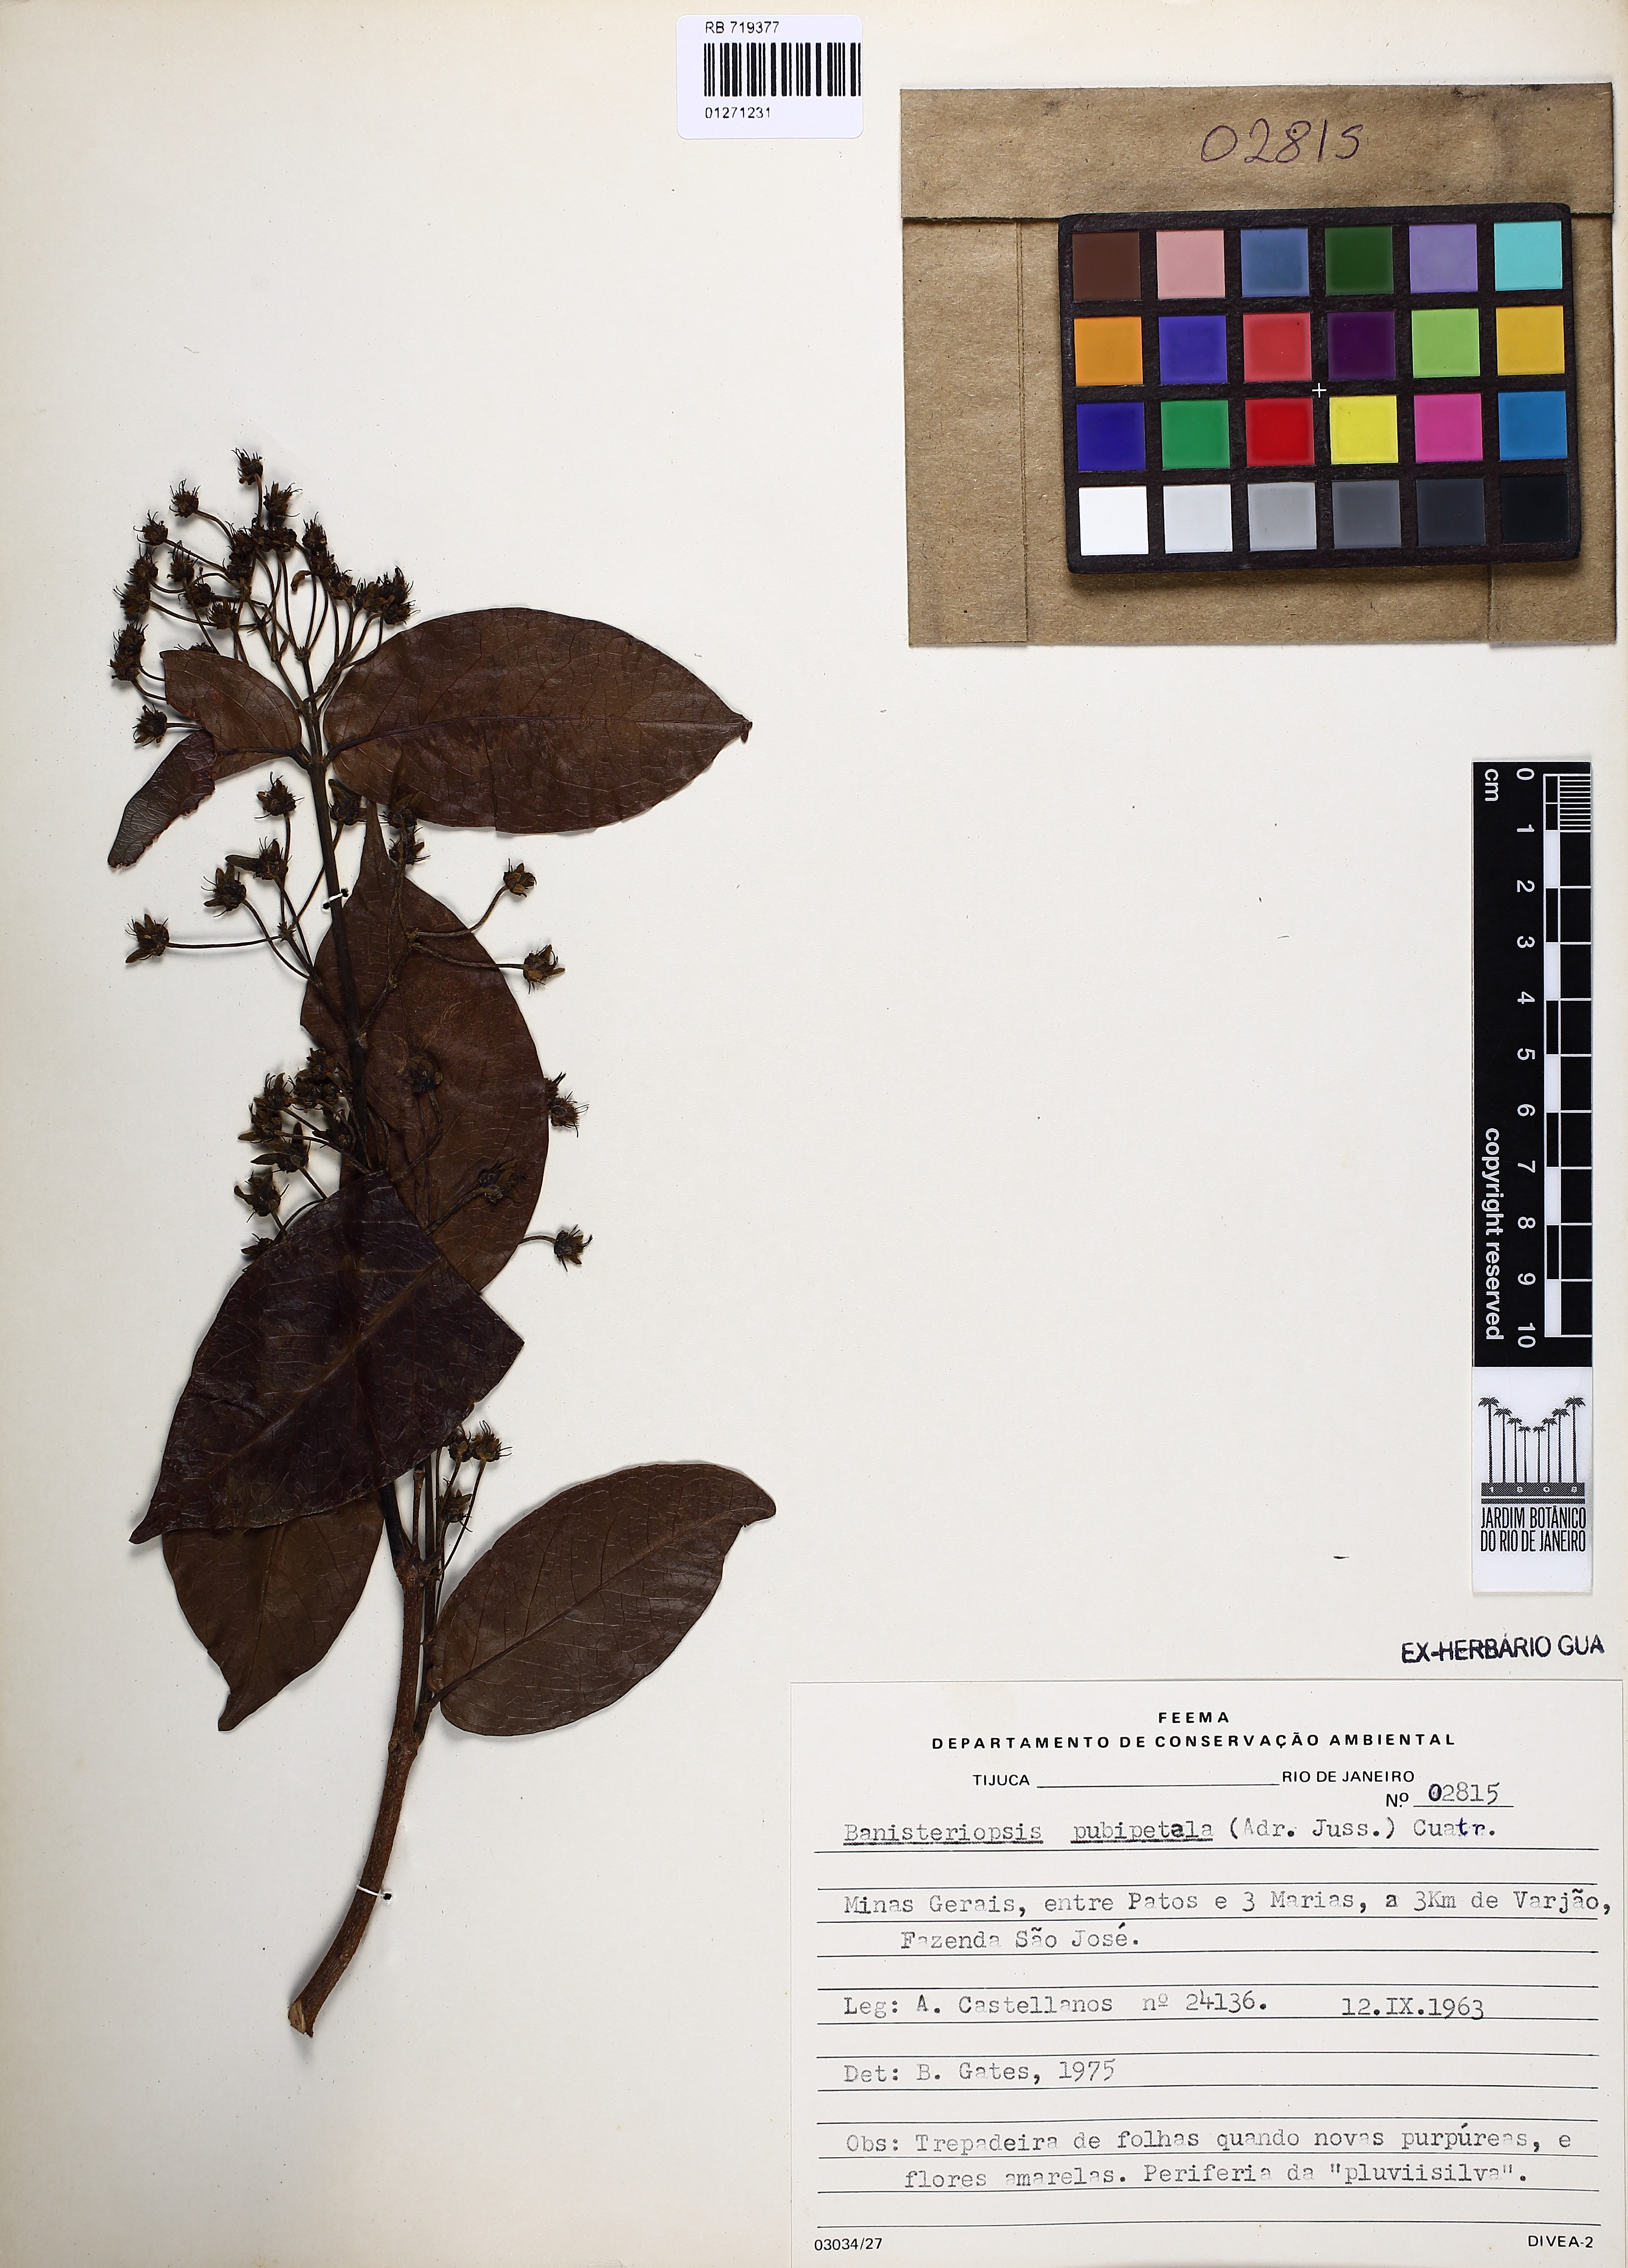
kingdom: Plantae
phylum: Tracheophyta
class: Magnoliopsida
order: Malpighiales
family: Malpighiaceae
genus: Diplopterys
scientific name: Diplopterys pubipetala
